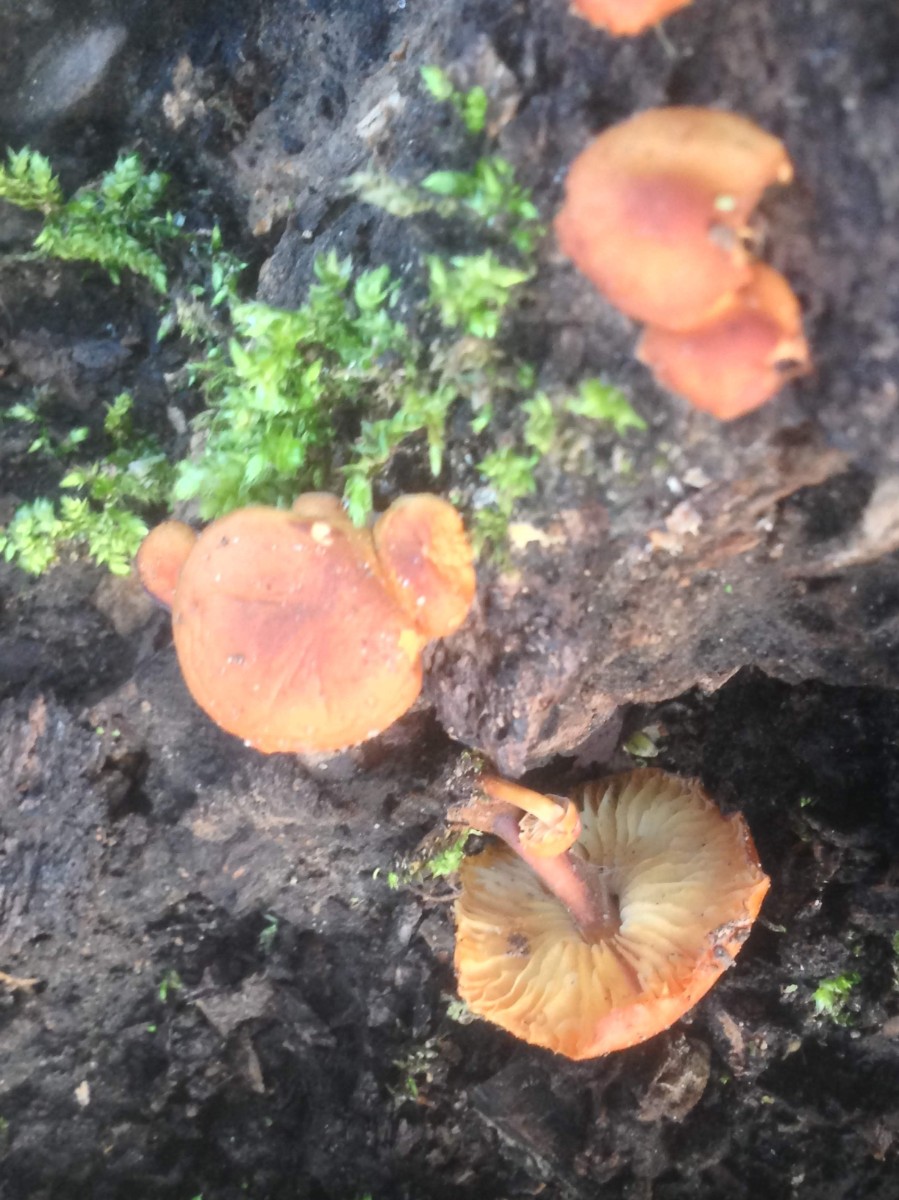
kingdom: Fungi
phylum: Basidiomycota
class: Agaricomycetes
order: Agaricales
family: Physalacriaceae
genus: Flammulina
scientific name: Flammulina velutipes
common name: gul fløjlsfod
